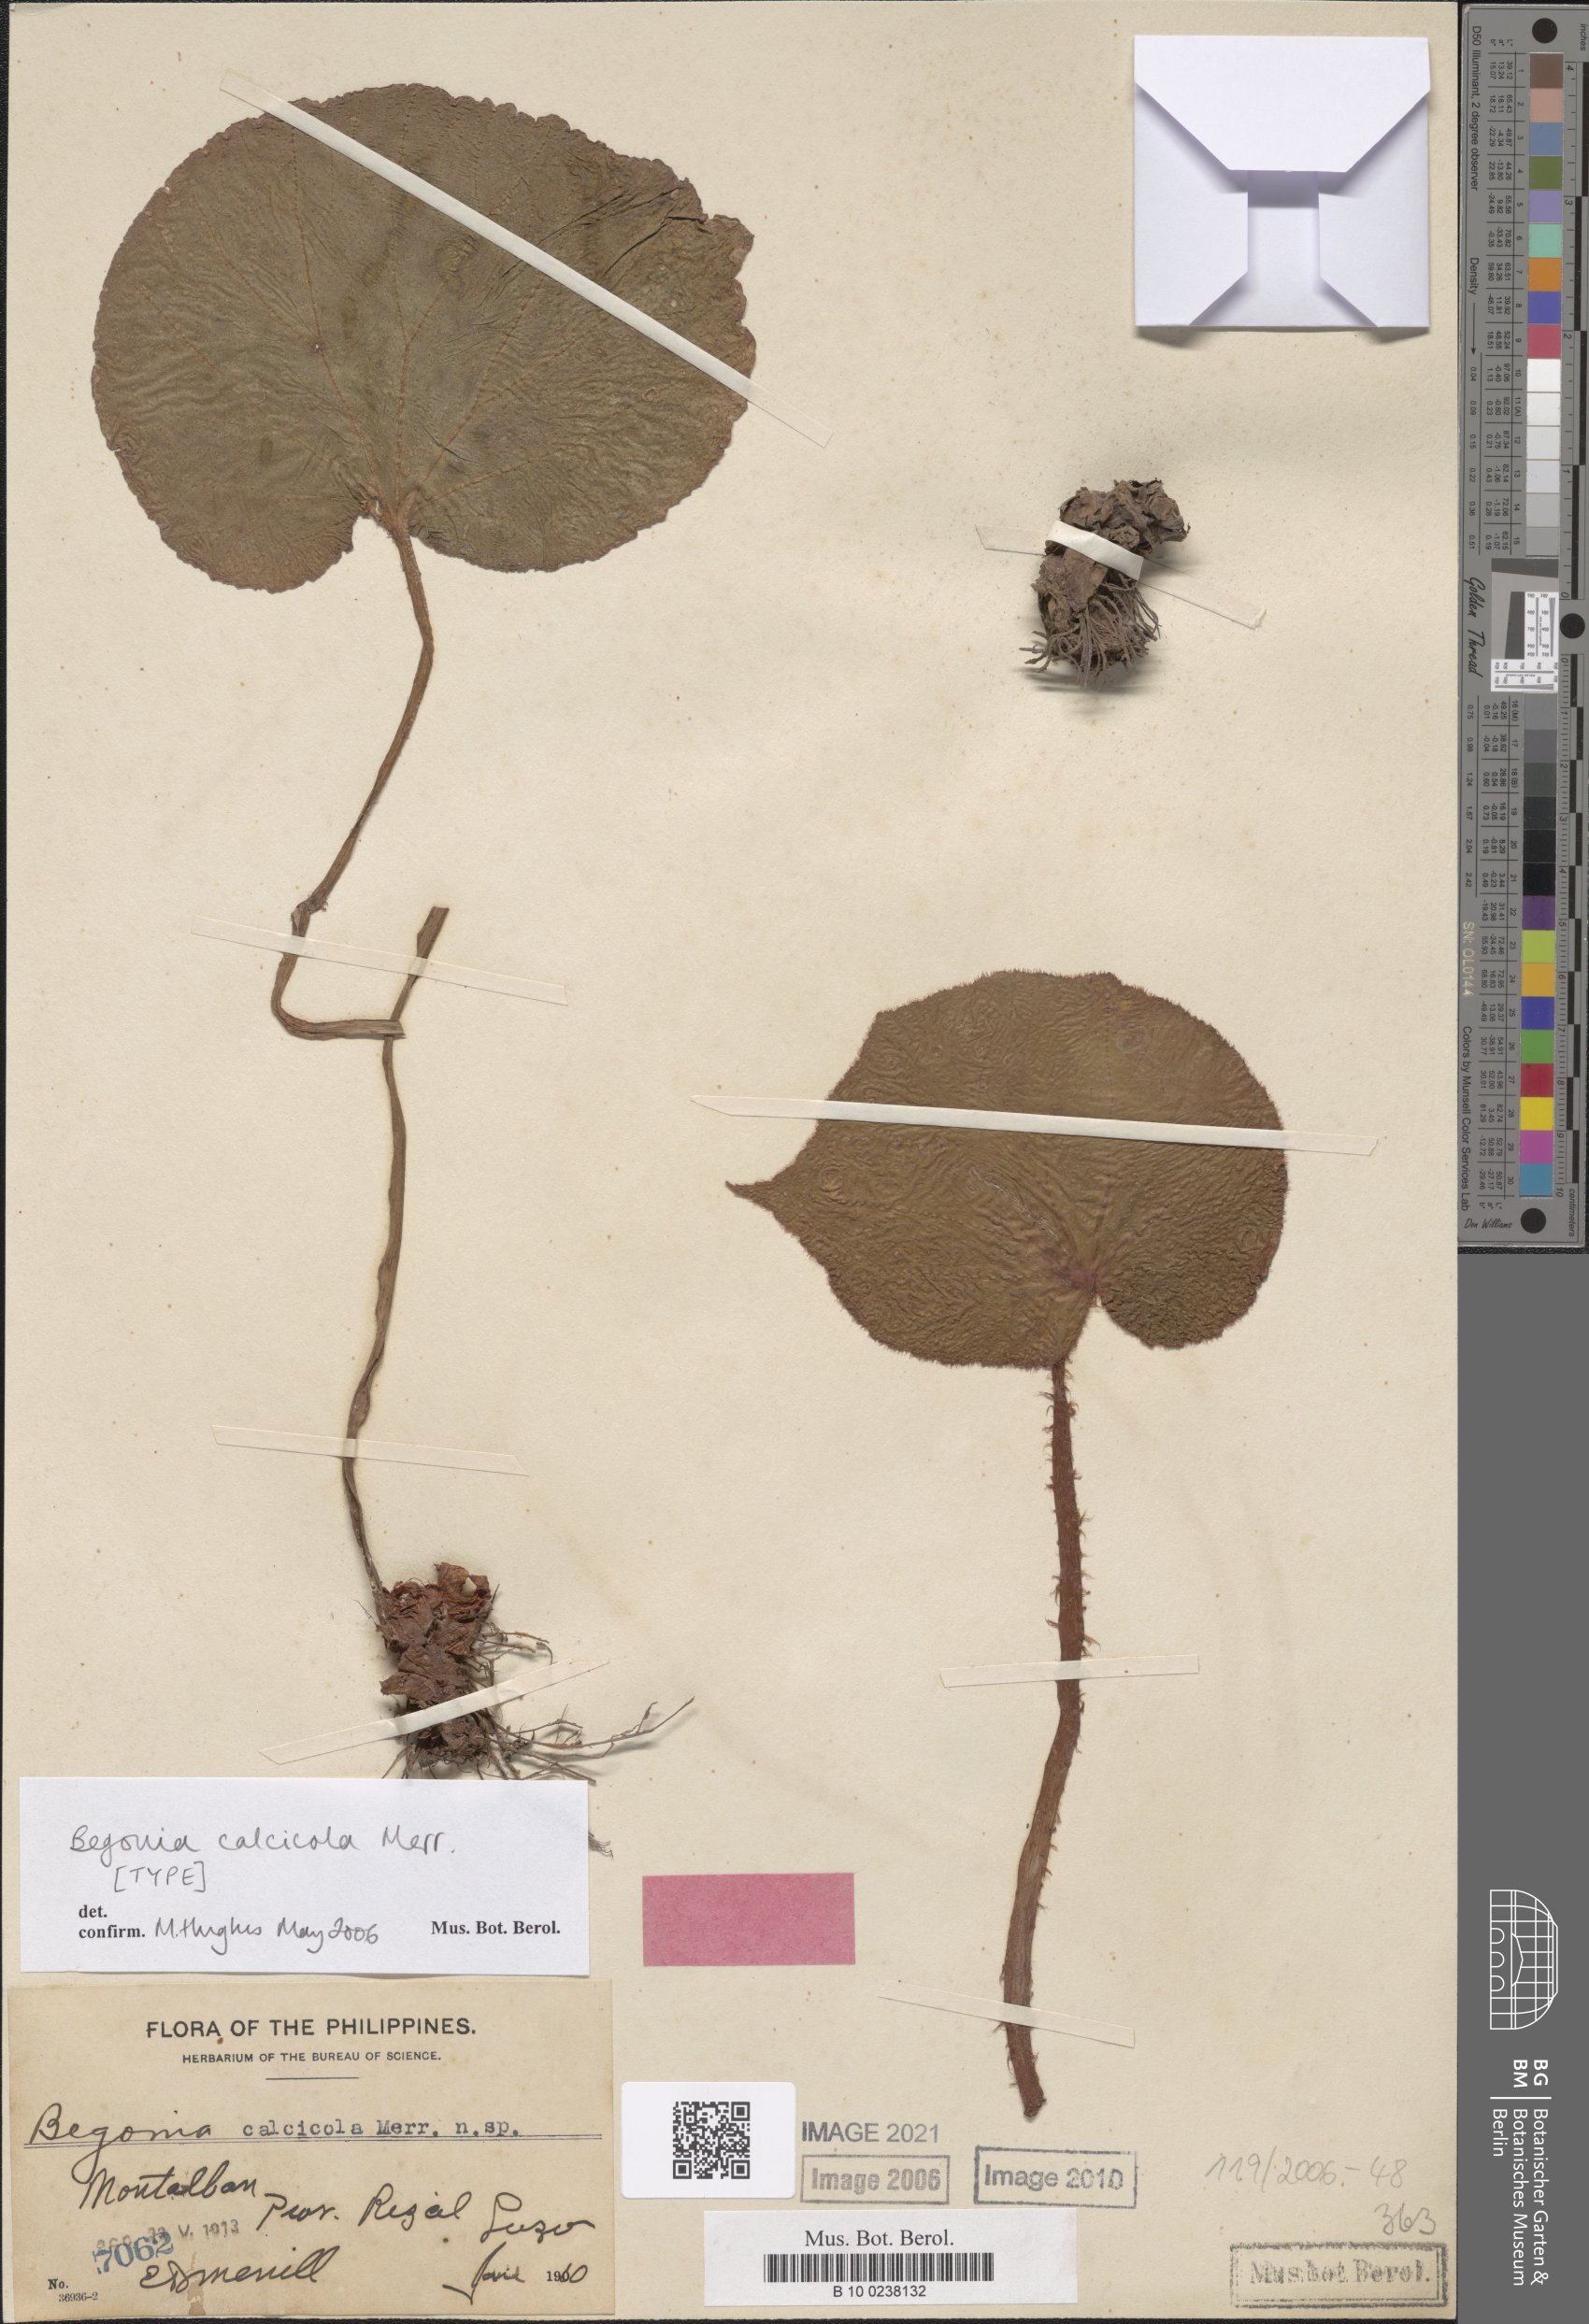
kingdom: Plantae
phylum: Tracheophyta
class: Magnoliopsida
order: Cucurbitales
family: Begoniaceae
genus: Begonia
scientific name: Begonia calcicola
